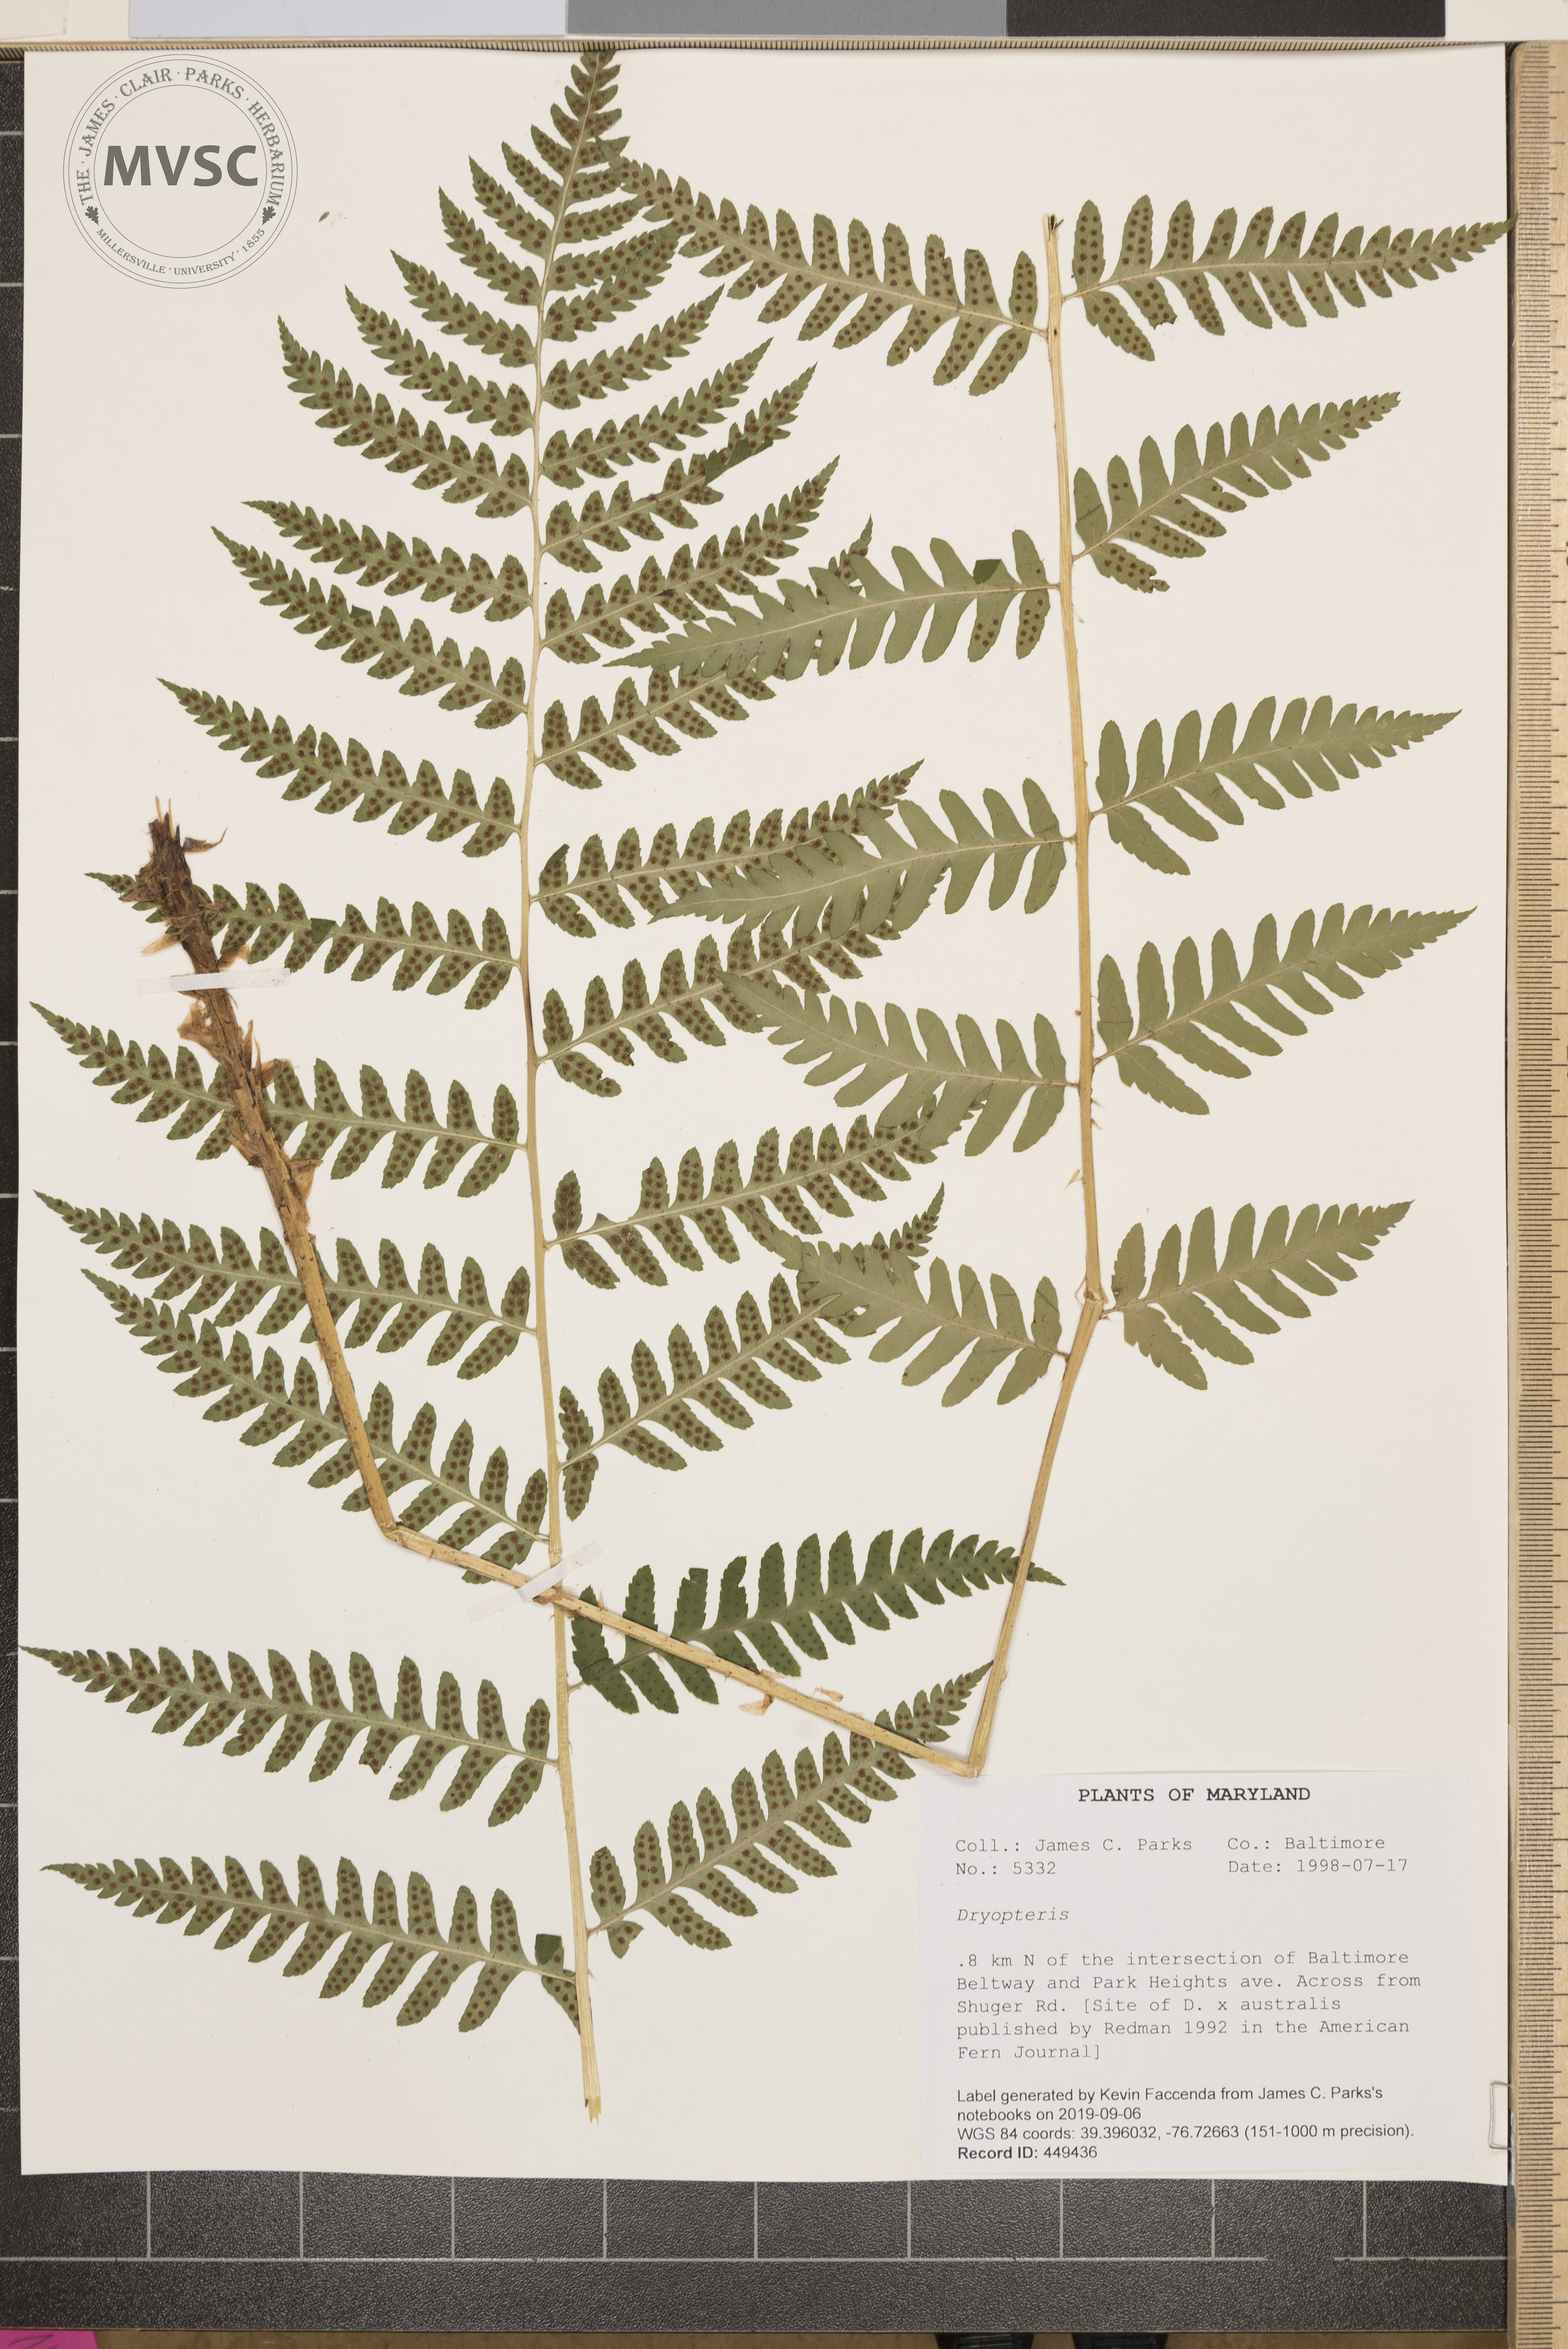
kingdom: Plantae
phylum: Tracheophyta
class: Polypodiopsida
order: Polypodiales
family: Dryopteridaceae
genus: Dryopteris
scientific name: Dryopteris celsa
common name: Log fern
